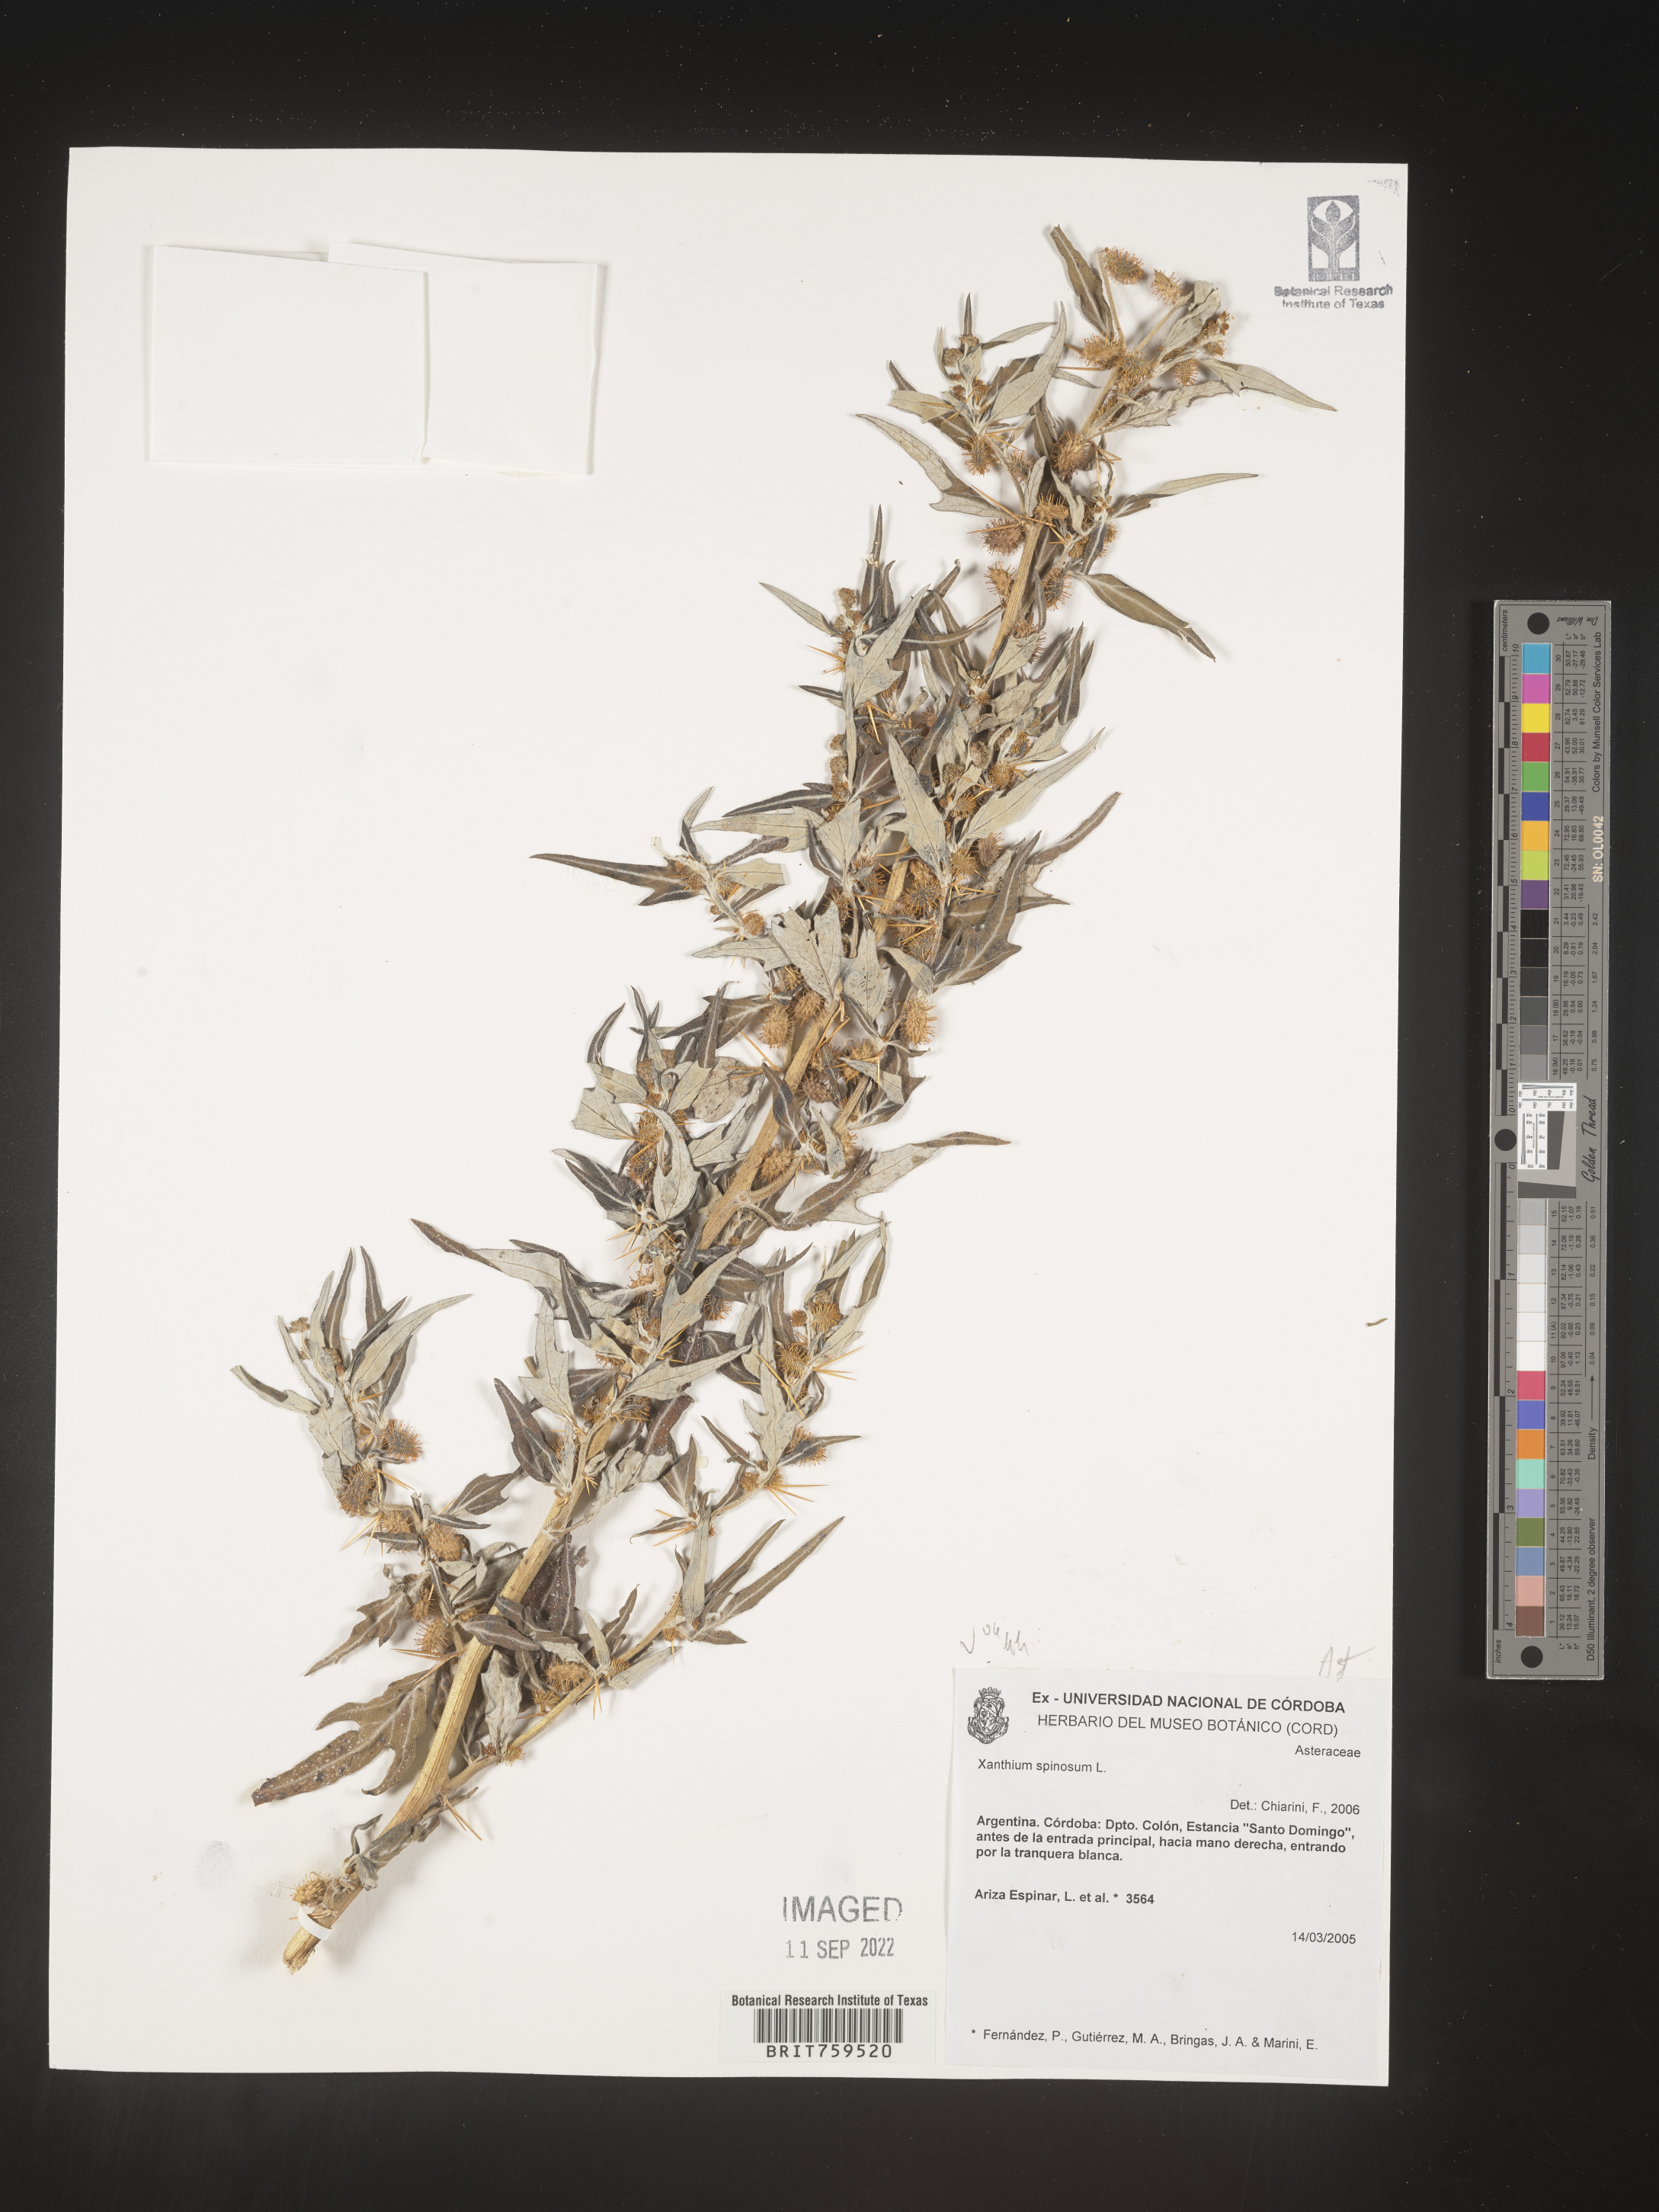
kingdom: Plantae
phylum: Tracheophyta
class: Magnoliopsida
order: Asterales
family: Asteraceae
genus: Xanthium
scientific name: Xanthium
